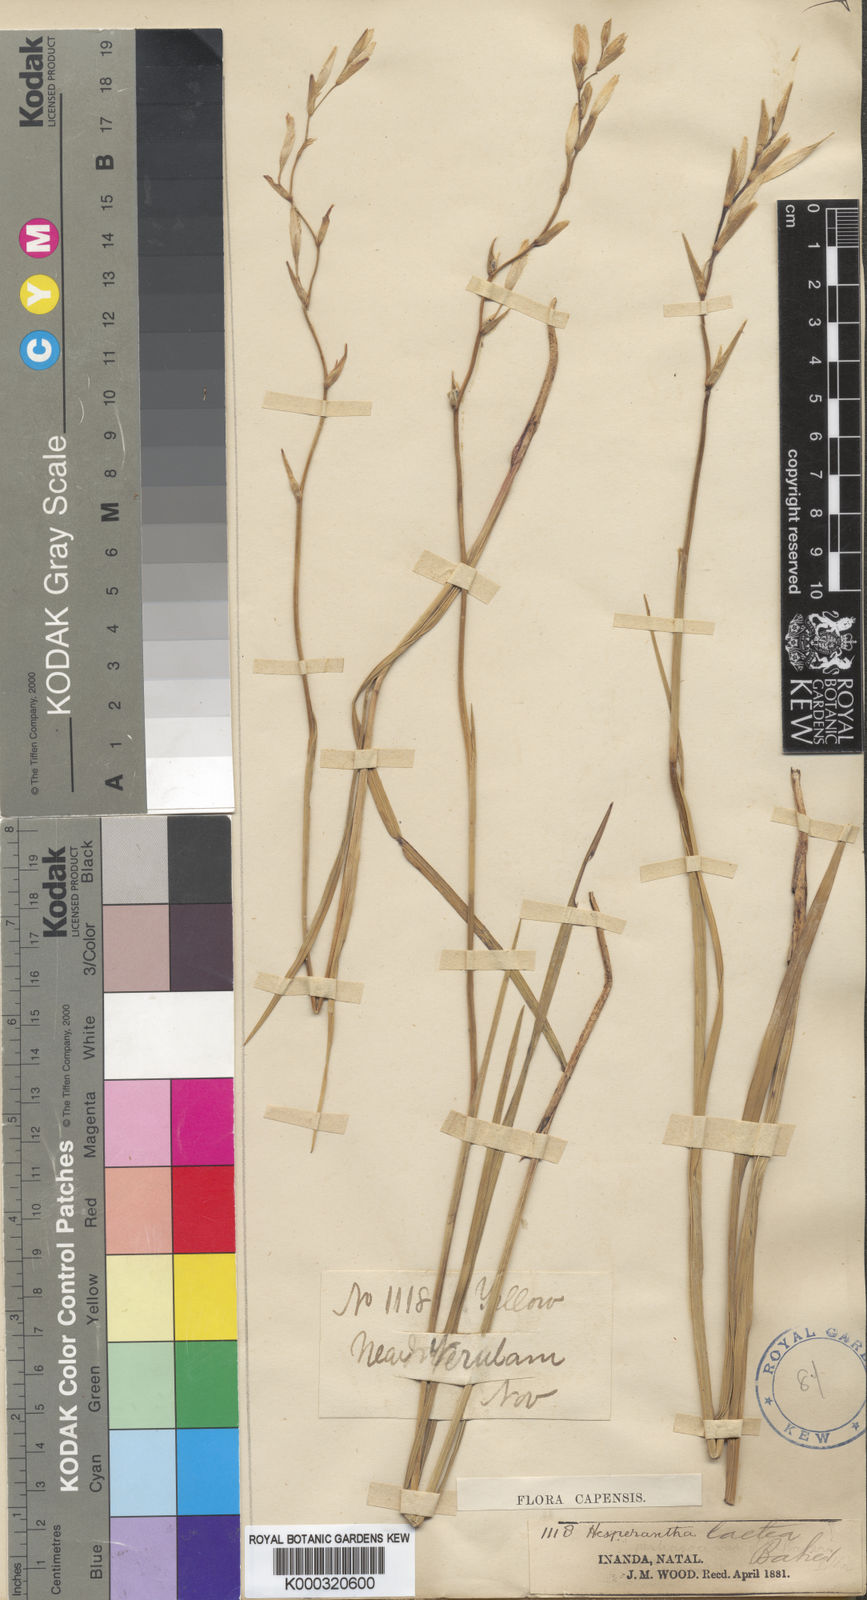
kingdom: Plantae
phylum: Tracheophyta
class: Liliopsida
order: Asparagales
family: Iridaceae
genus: Hesperantha
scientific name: Hesperantha lactea
